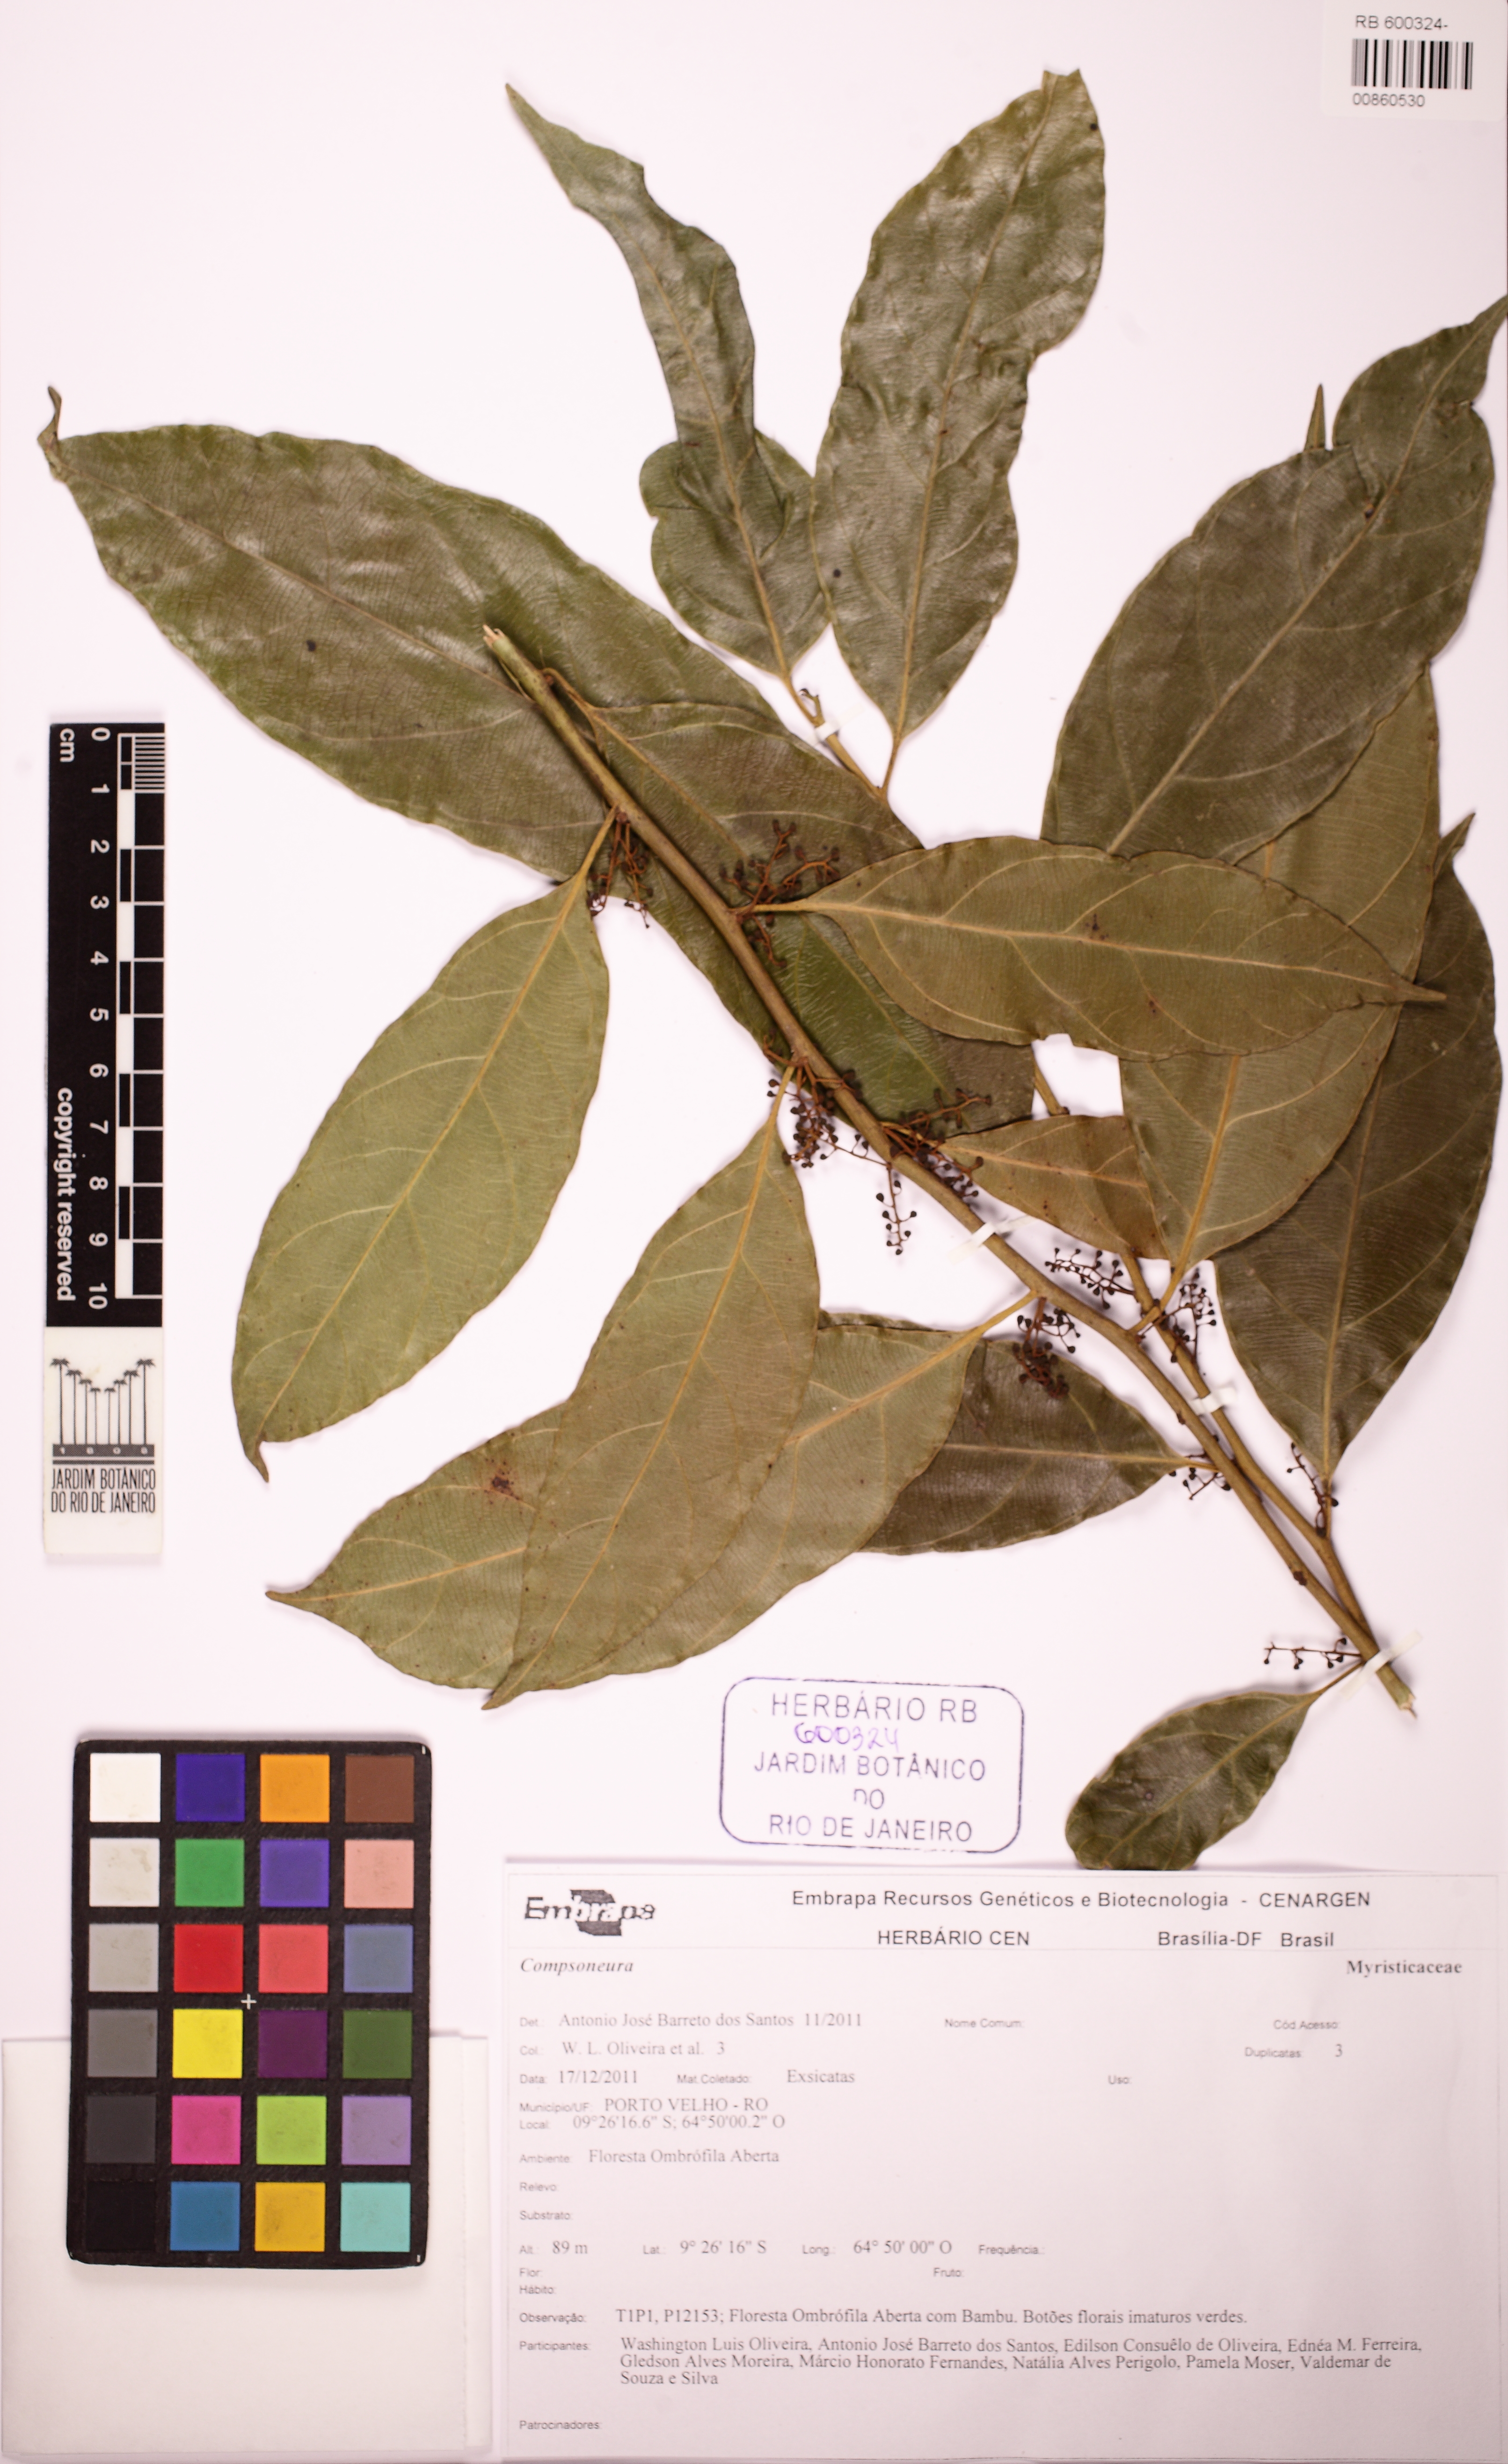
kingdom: Plantae
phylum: Tracheophyta
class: Magnoliopsida
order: Magnoliales
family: Myristicaceae
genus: Compsoneura
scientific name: Compsoneura ulei
